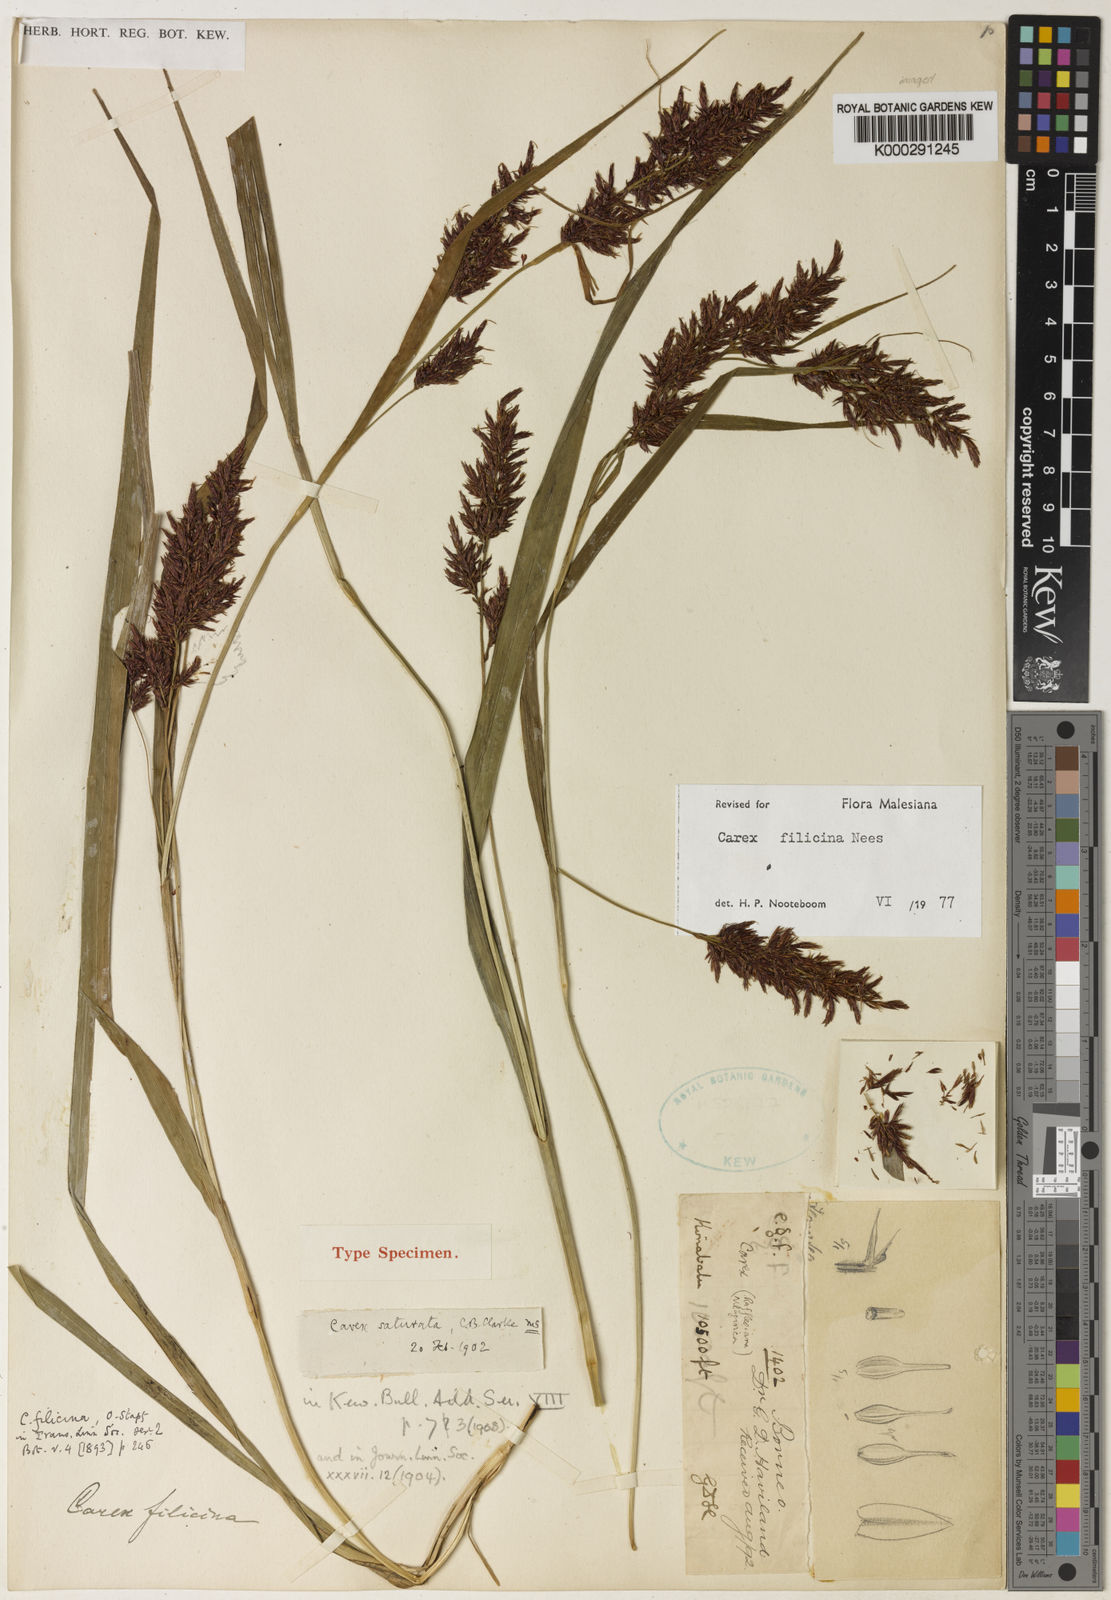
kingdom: Plantae
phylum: Tracheophyta
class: Liliopsida
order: Poales
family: Cyperaceae
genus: Carex
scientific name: Carex filicina
